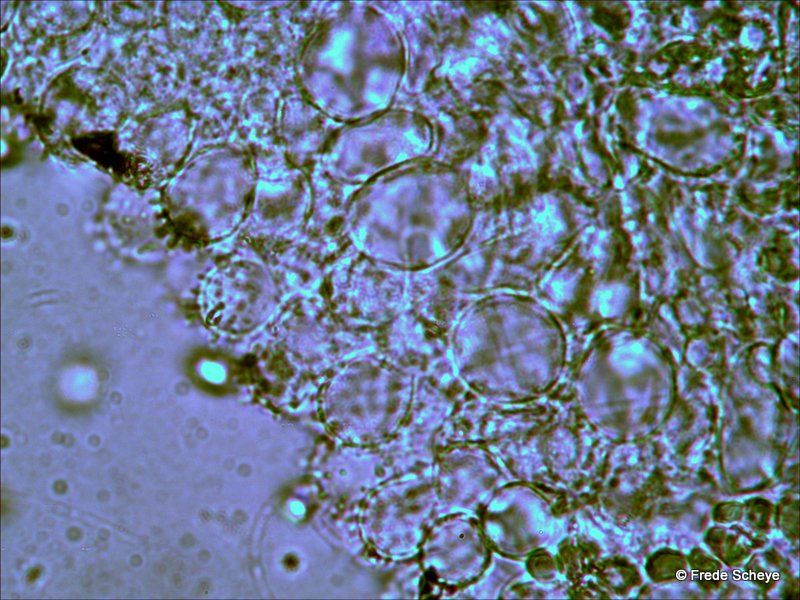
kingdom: Fungi
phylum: Basidiomycota
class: Agaricomycetes
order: Agaricales
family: Mycenaceae
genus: Mycena
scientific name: Mycena filopes
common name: jod-huesvamp
